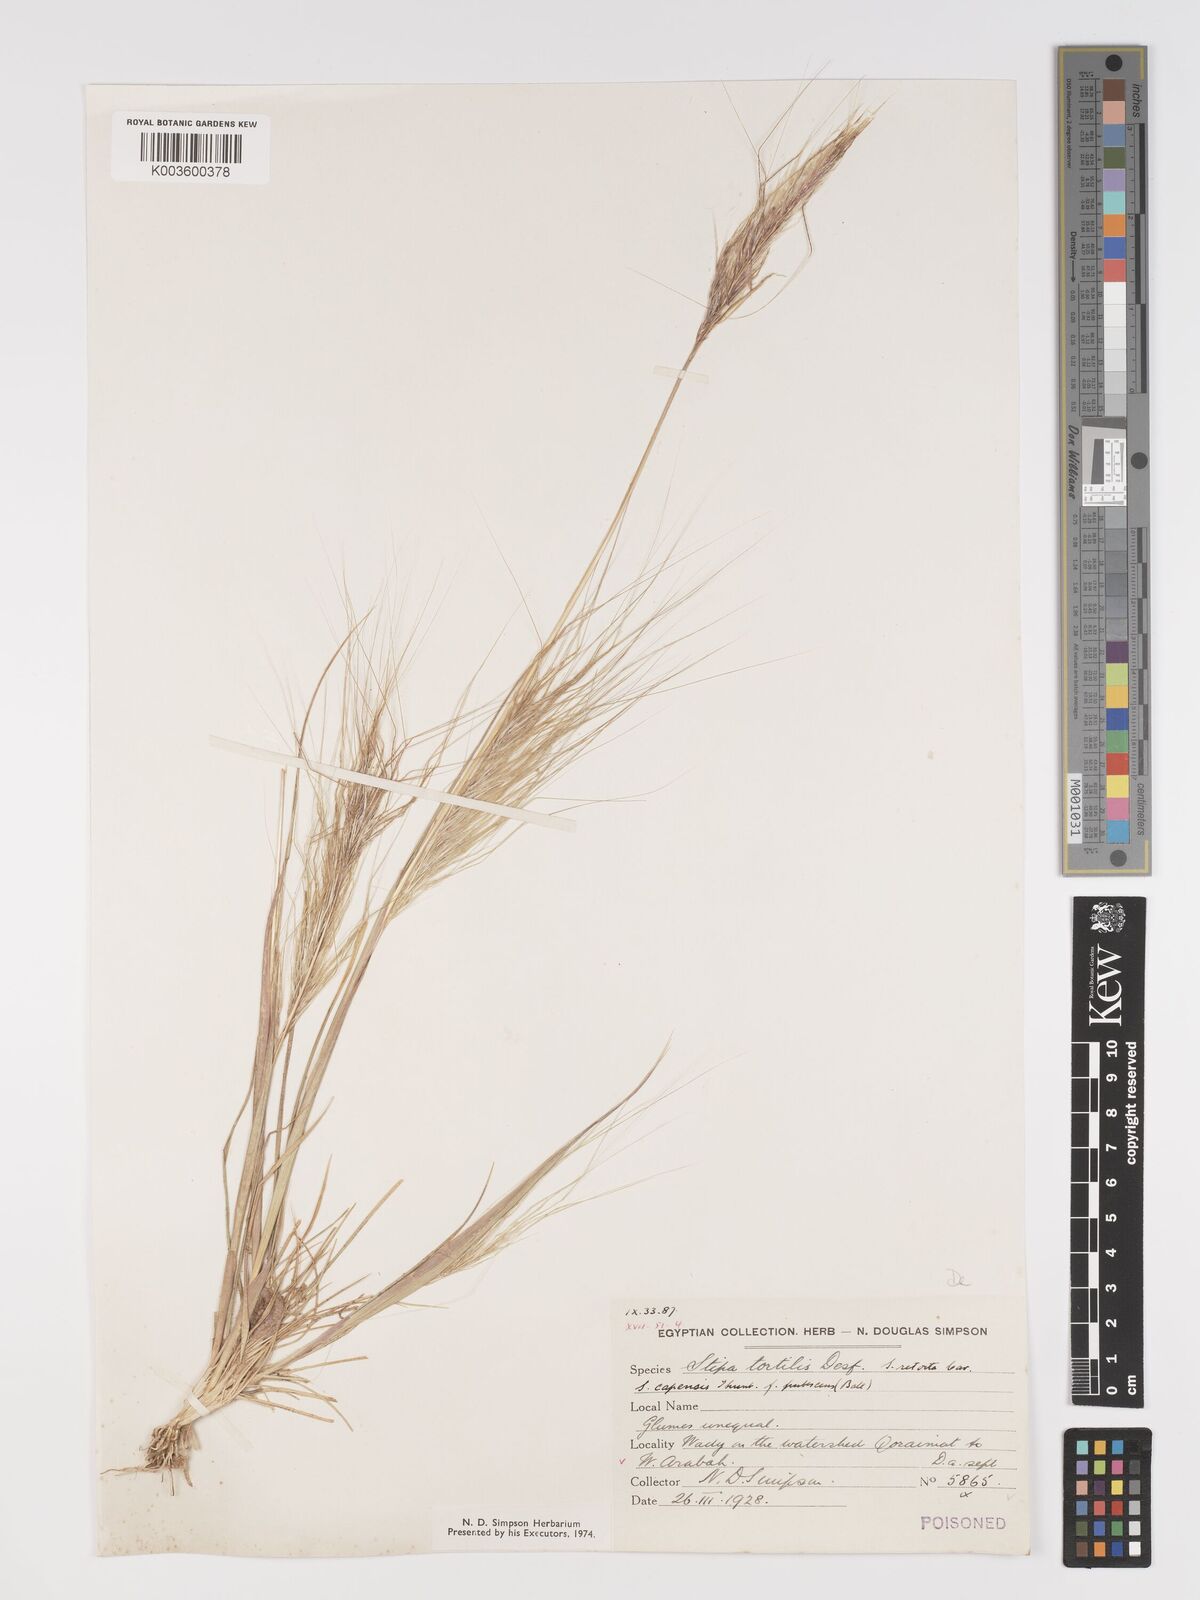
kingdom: Plantae
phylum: Tracheophyta
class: Liliopsida
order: Poales
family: Poaceae
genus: Stipellula
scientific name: Stipellula capensis
